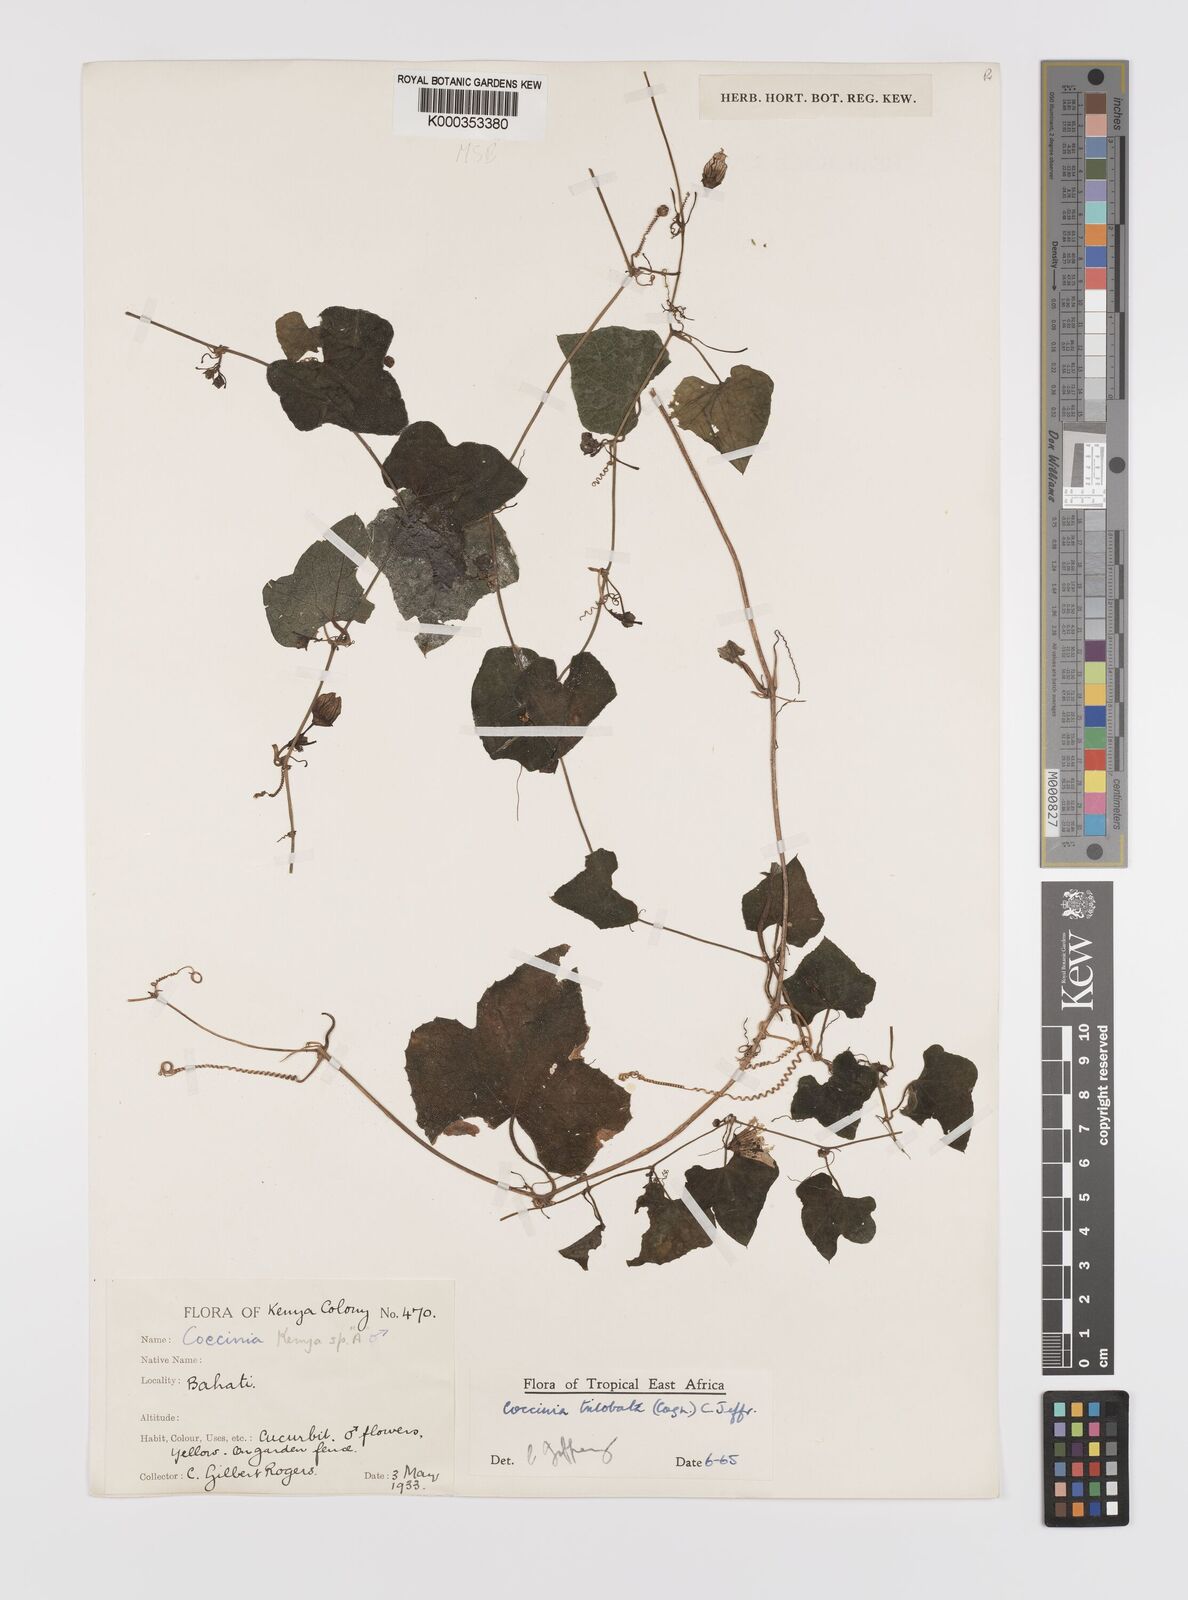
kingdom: Plantae
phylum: Tracheophyta
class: Magnoliopsida
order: Cucurbitales
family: Cucurbitaceae
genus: Coccinia
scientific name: Coccinia trilobata
